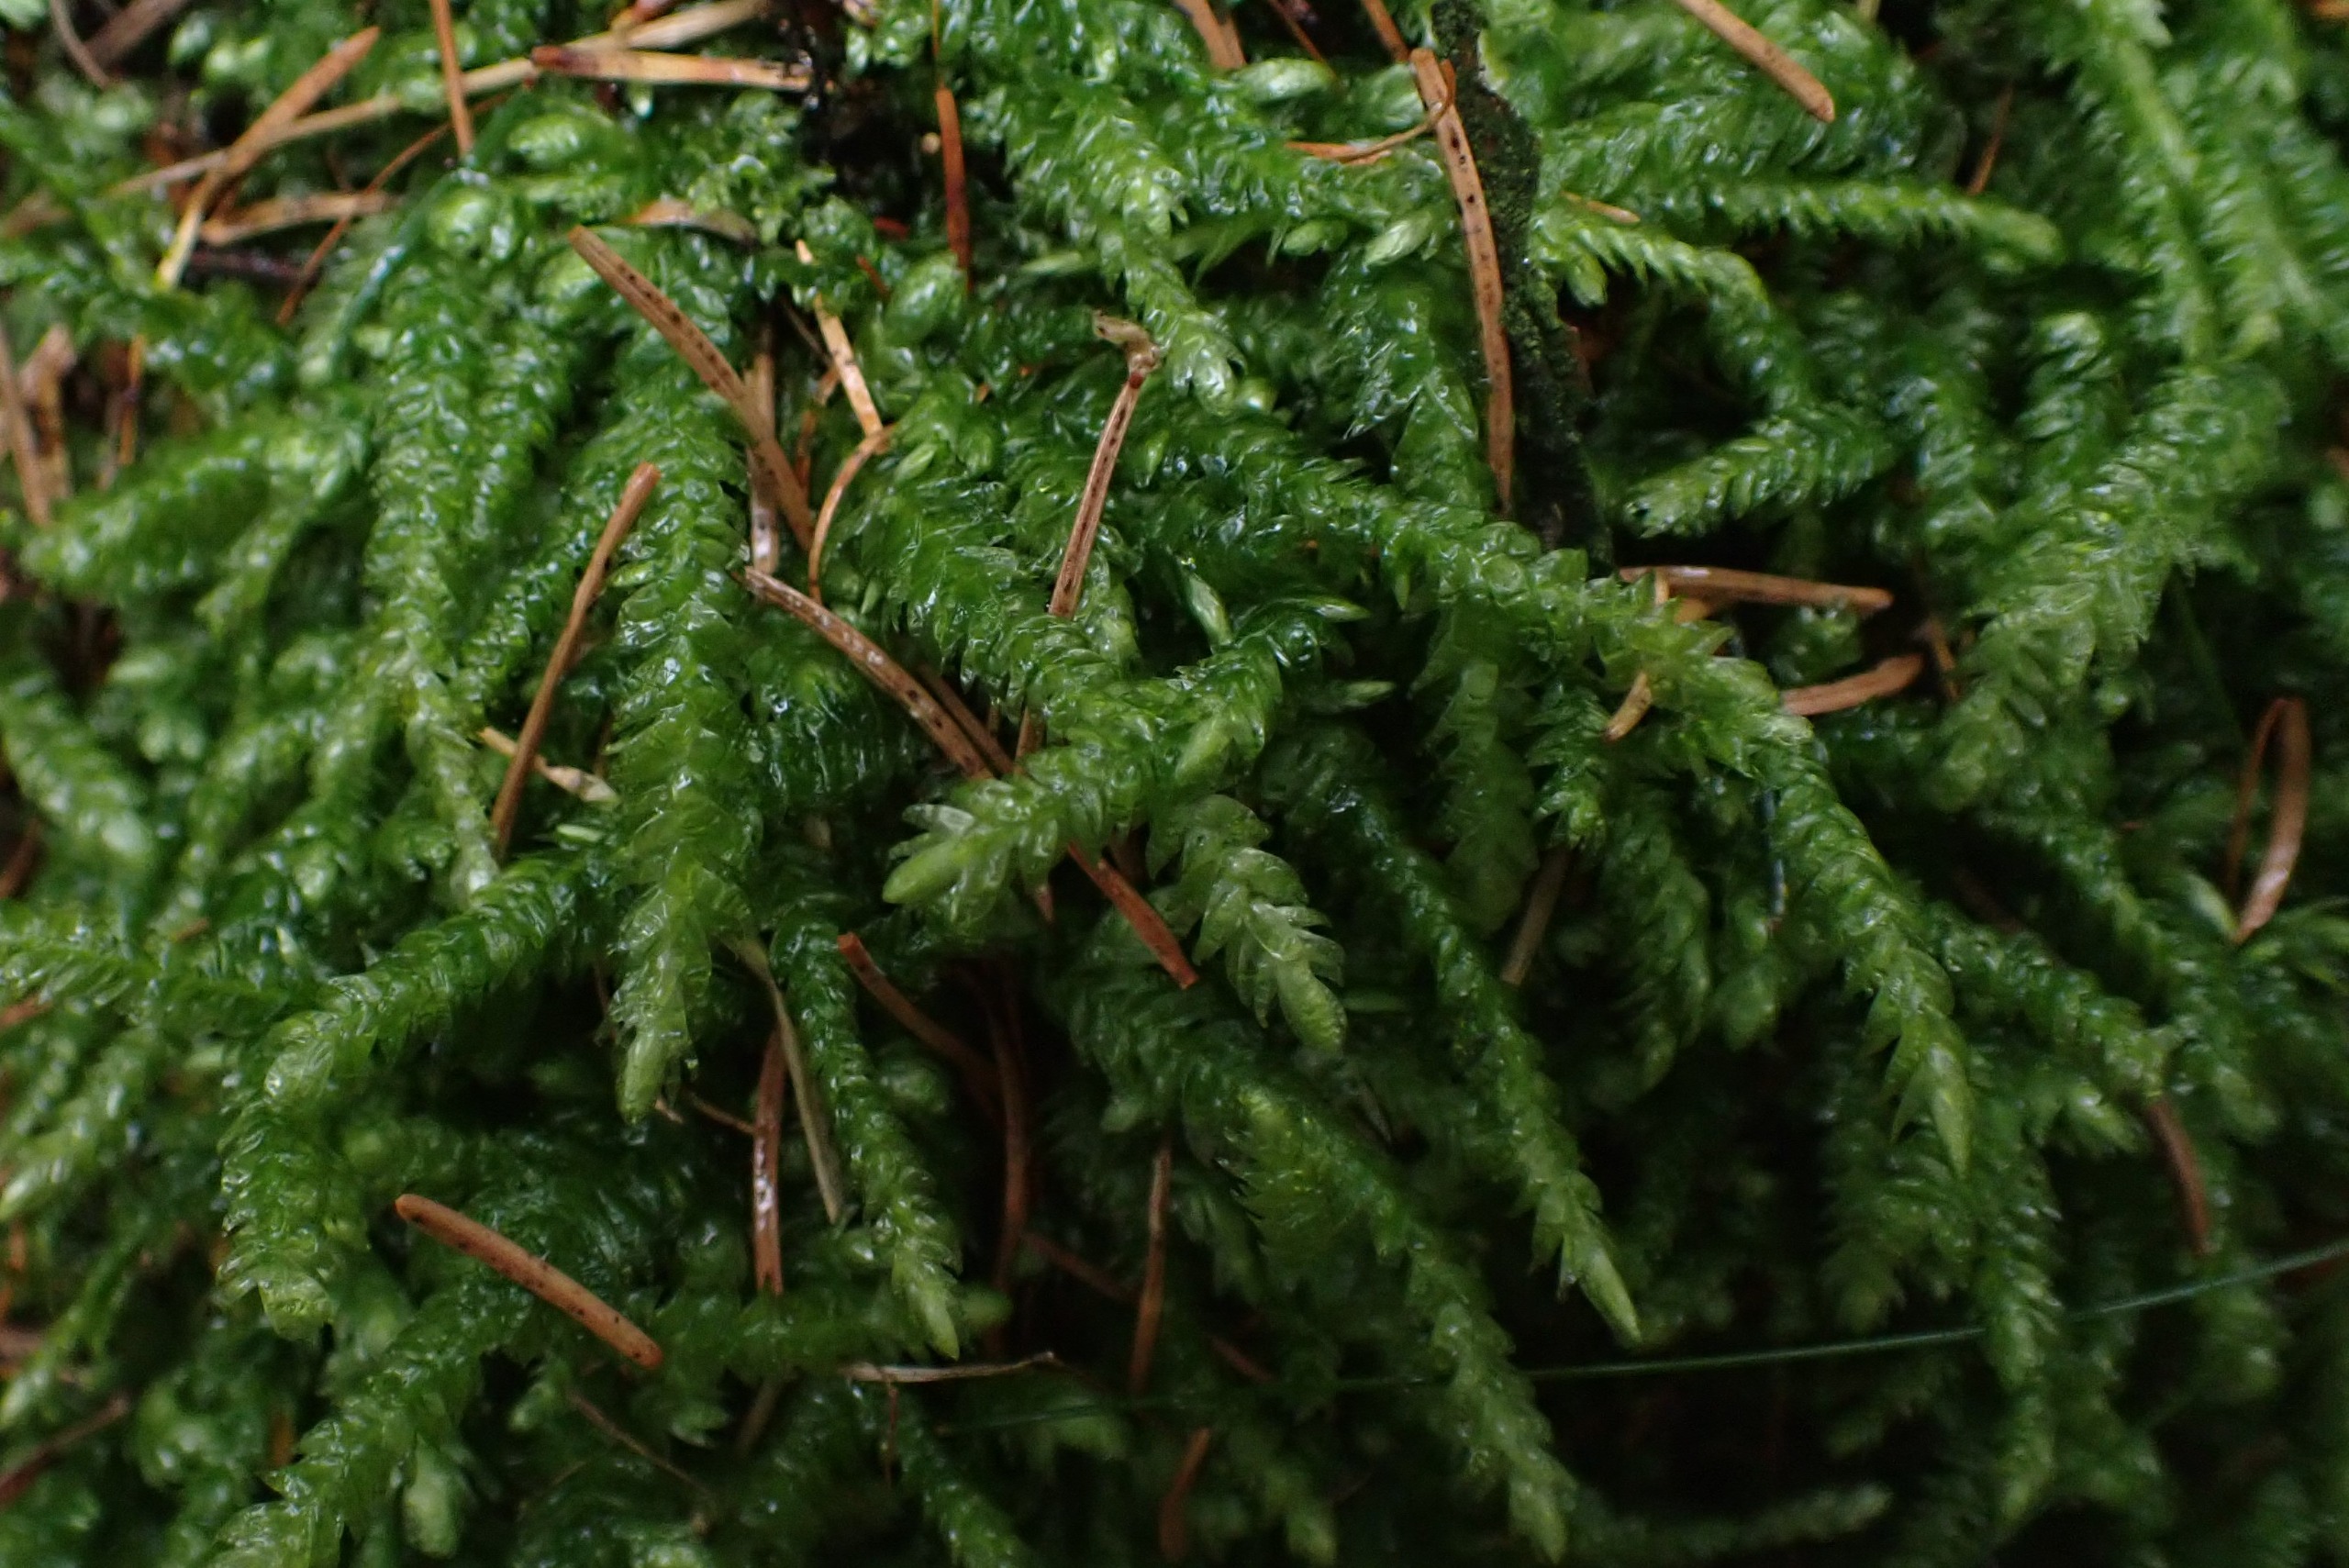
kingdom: Plantae
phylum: Bryophyta
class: Bryopsida
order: Hypnales
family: Plagiotheciaceae
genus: Plagiothecium
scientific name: Plagiothecium undulatum
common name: Bølget tæppemos
